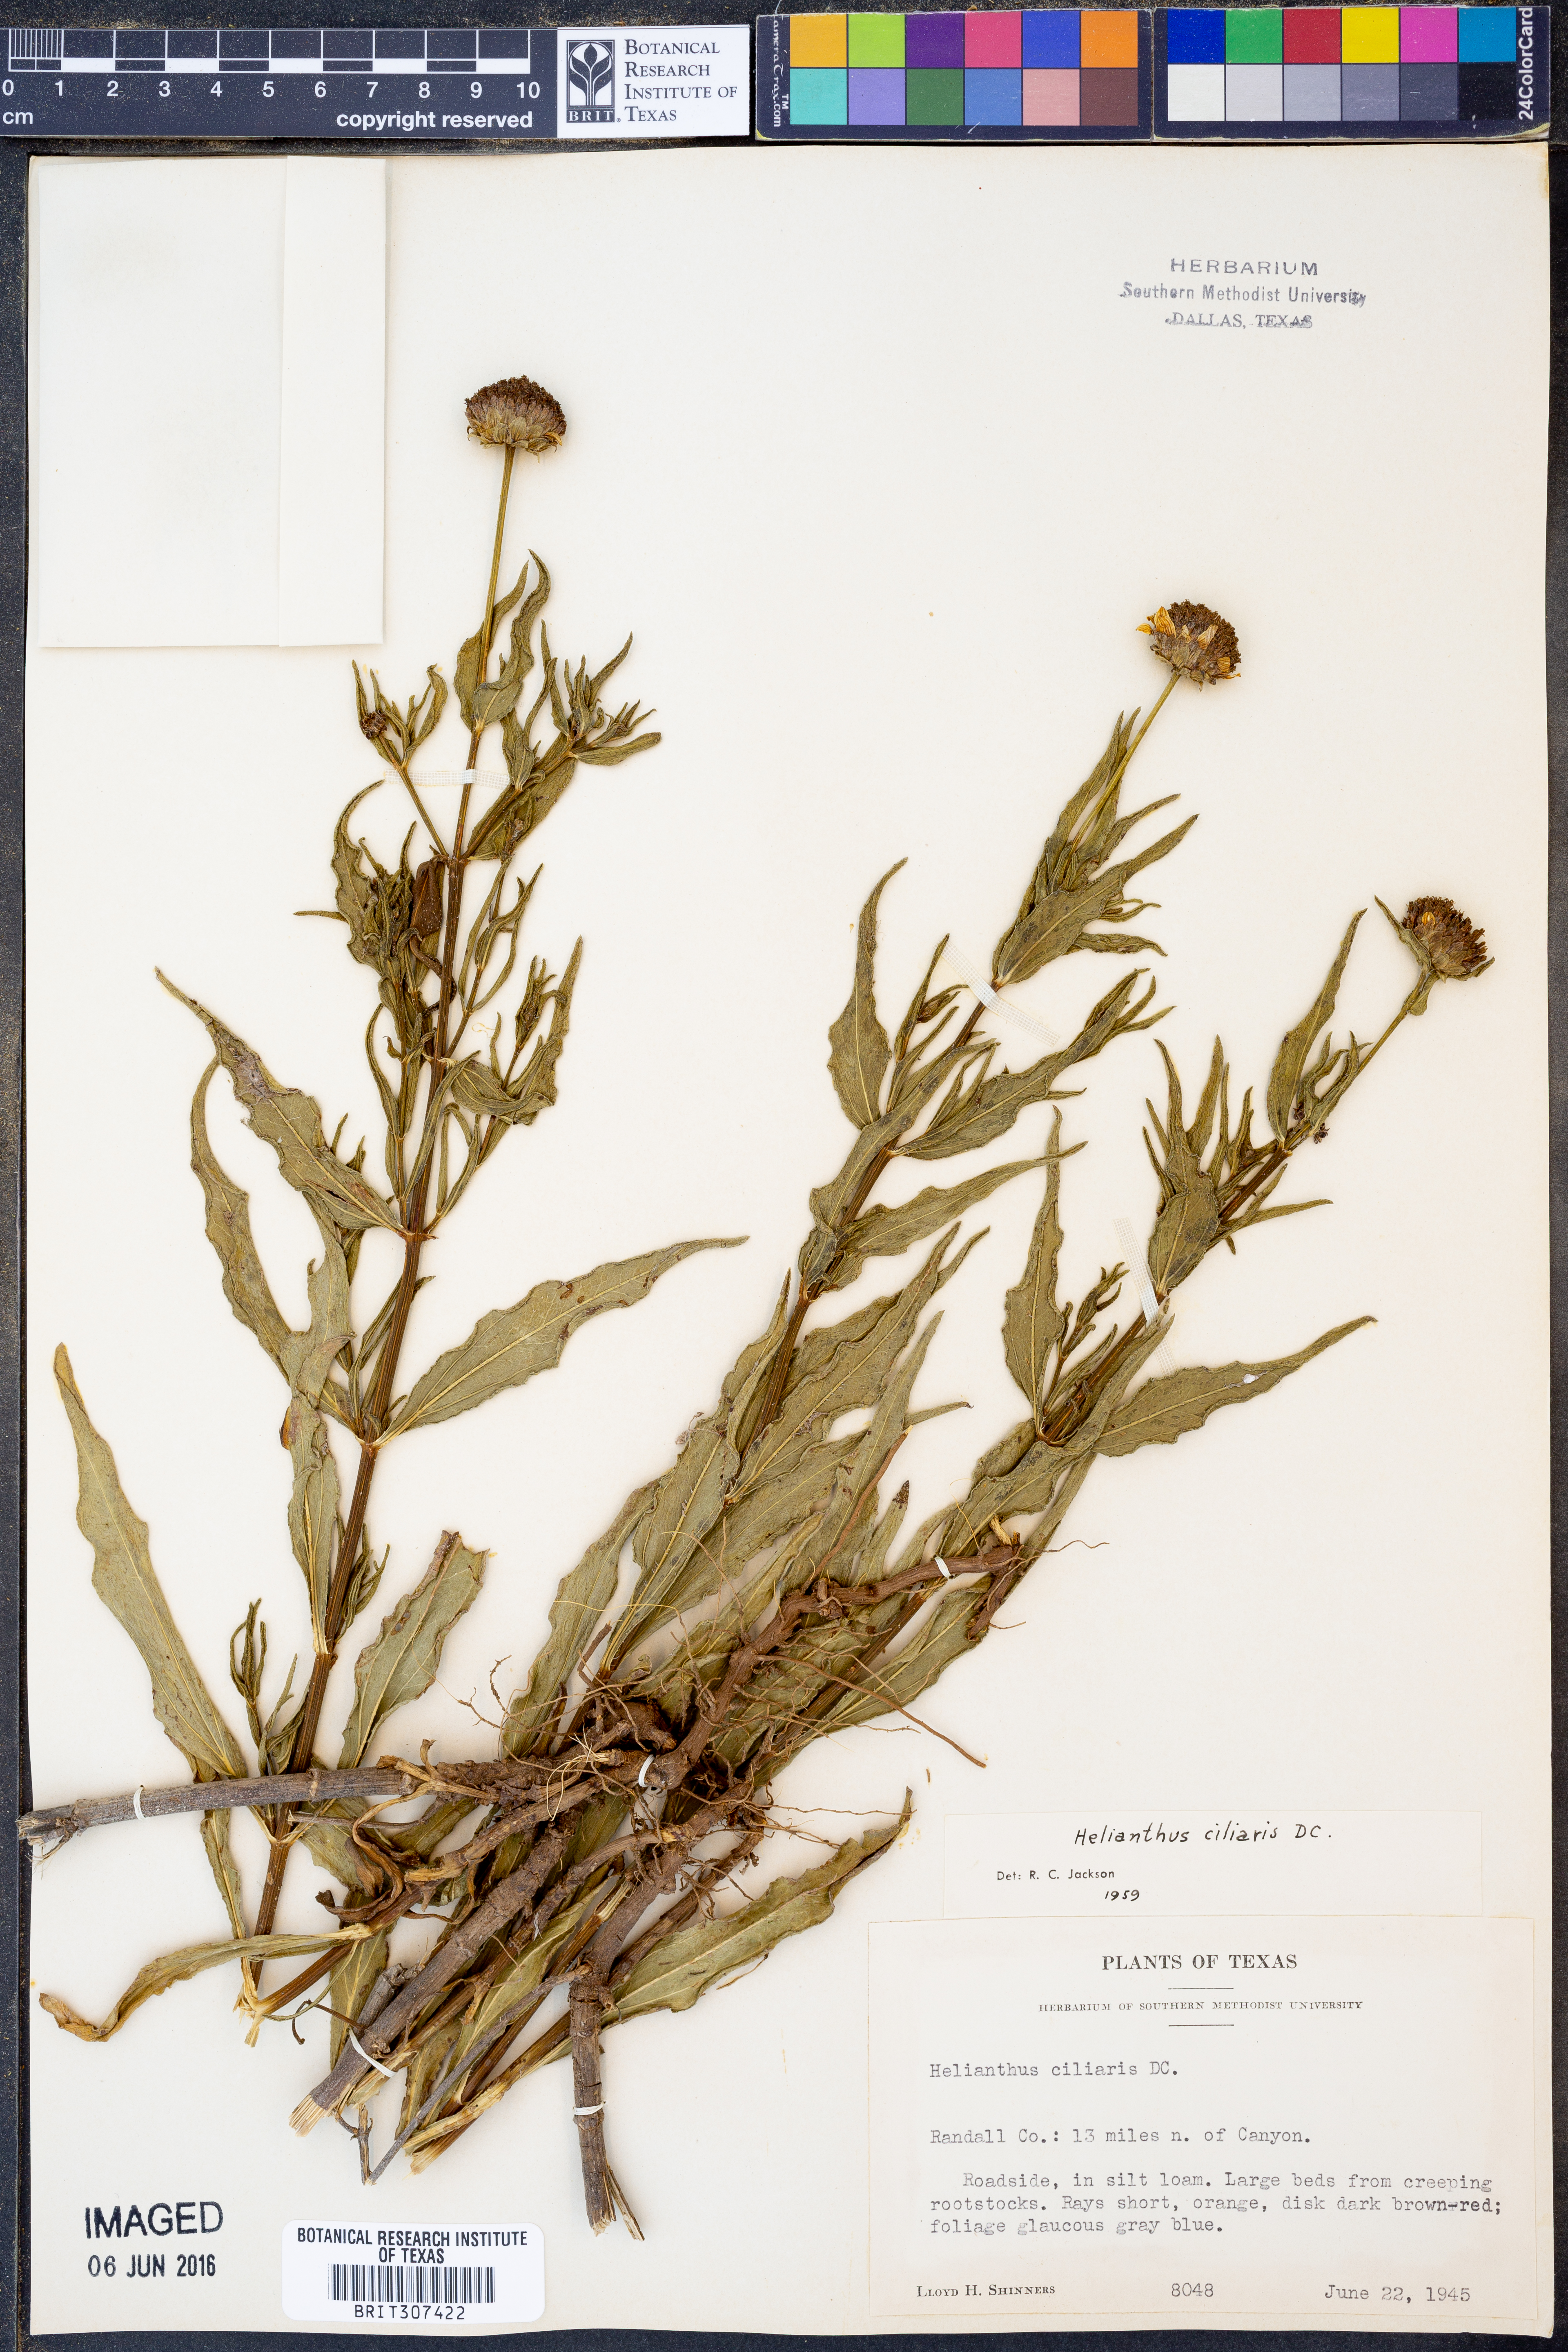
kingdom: Plantae
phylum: Tracheophyta
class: Magnoliopsida
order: Asterales
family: Asteraceae
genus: Helianthus
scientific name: Helianthus ciliaris
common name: Texas blueweed
